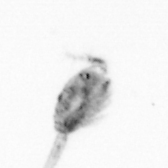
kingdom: Animalia
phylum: Arthropoda
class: Copepoda
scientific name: Copepoda
